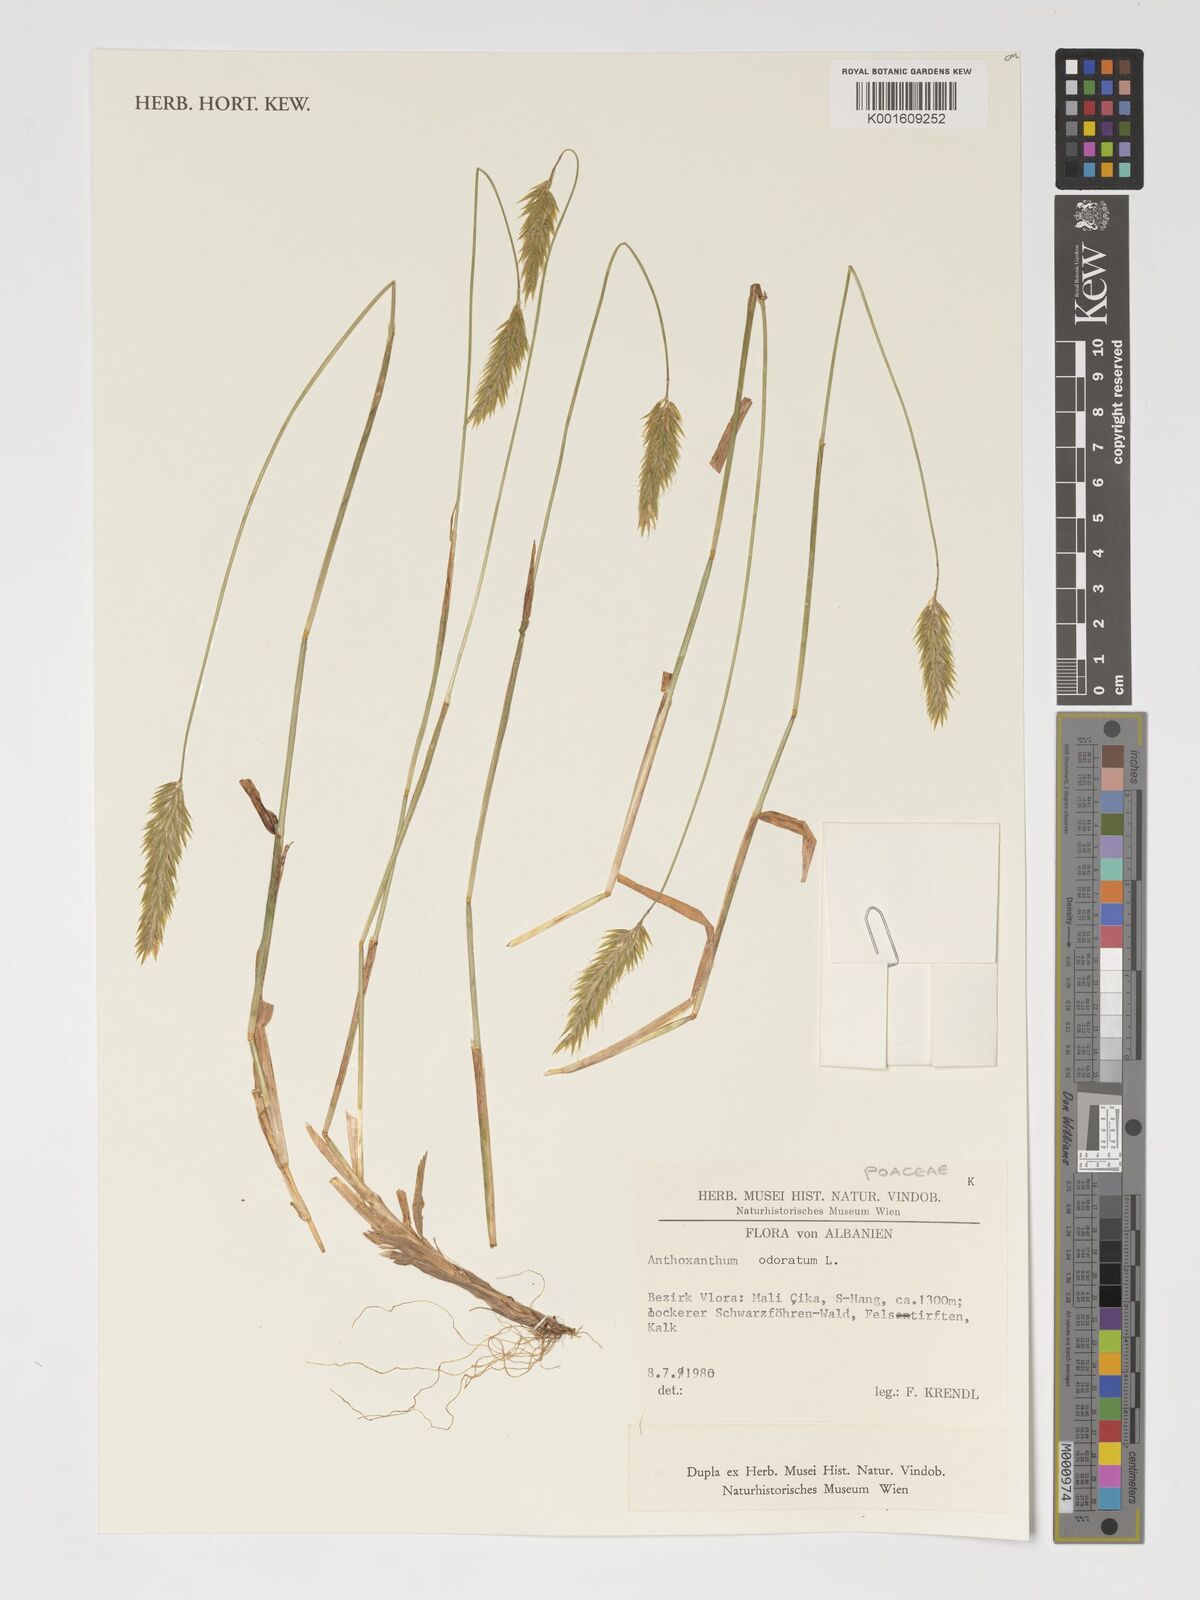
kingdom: Plantae
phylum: Tracheophyta
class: Liliopsida
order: Poales
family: Poaceae
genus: Anthoxanthum
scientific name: Anthoxanthum odoratum
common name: Sweet vernalgrass
